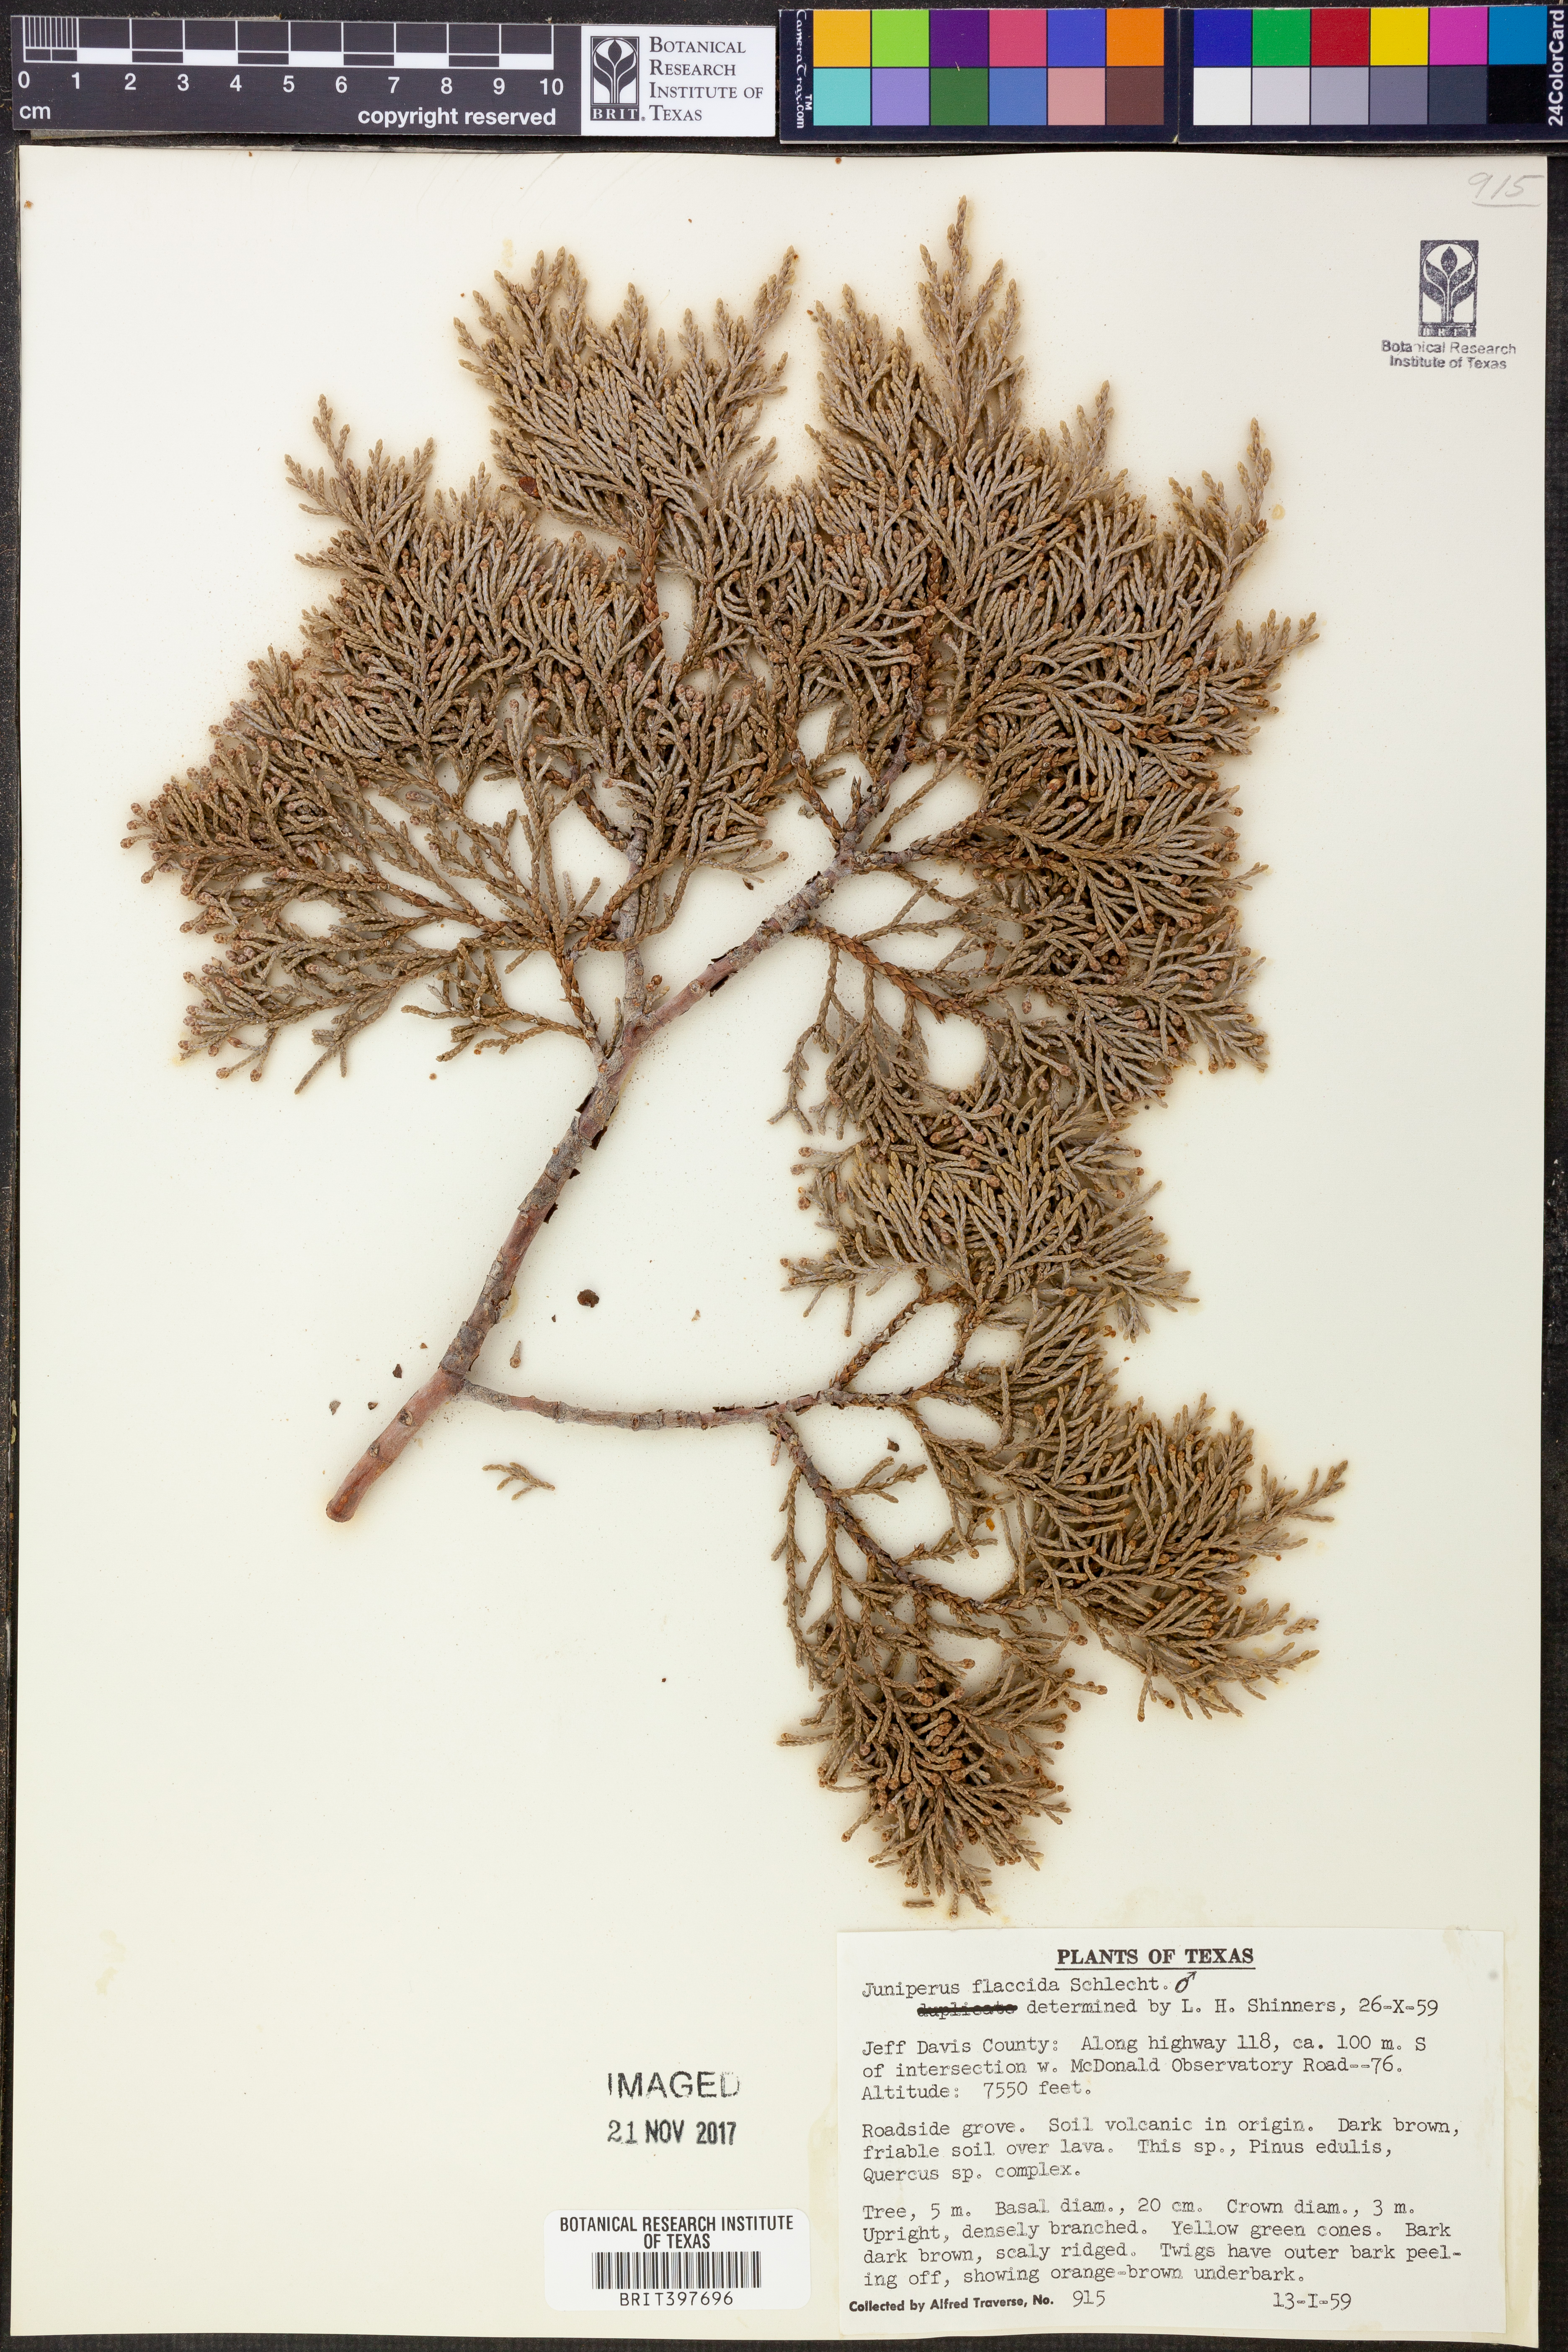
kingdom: Plantae
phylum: Tracheophyta
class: Pinopsida
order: Pinales
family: Cupressaceae
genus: Juniperus
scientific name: Juniperus flaccida
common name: Drooping juniper
